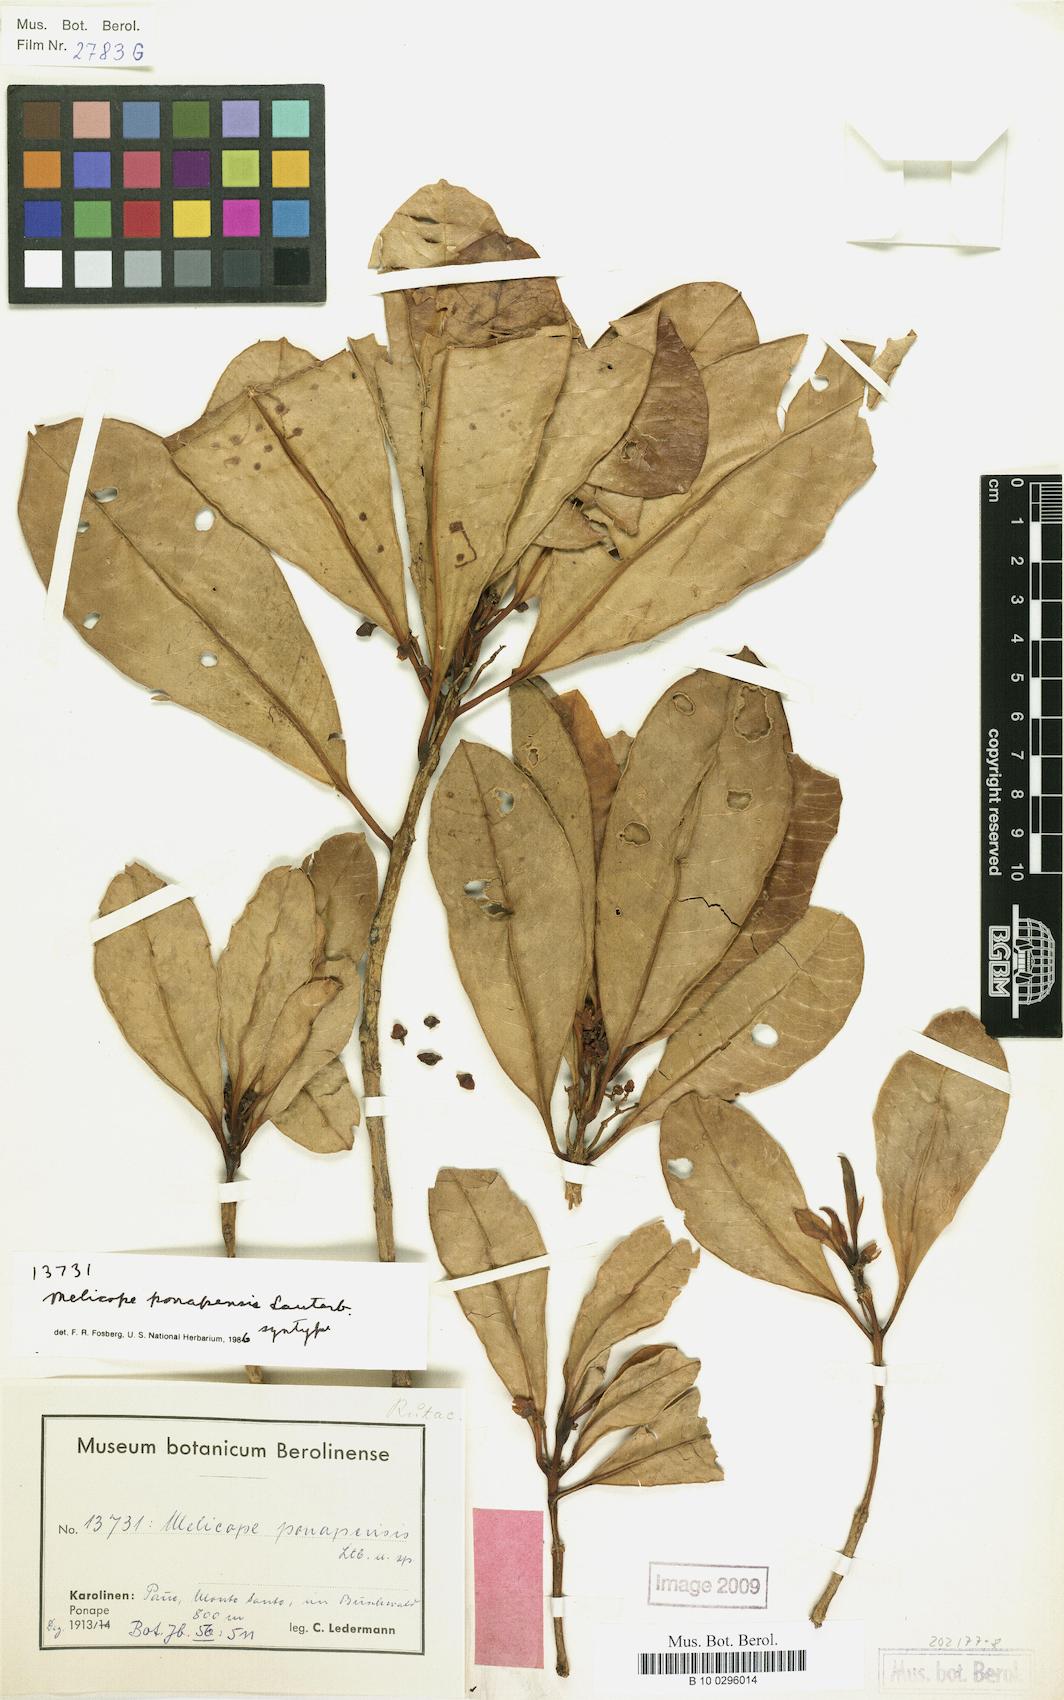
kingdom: Plantae
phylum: Tracheophyta
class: Magnoliopsida
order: Sapindales
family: Rutaceae
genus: Melicope
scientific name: Melicope ponapensis
